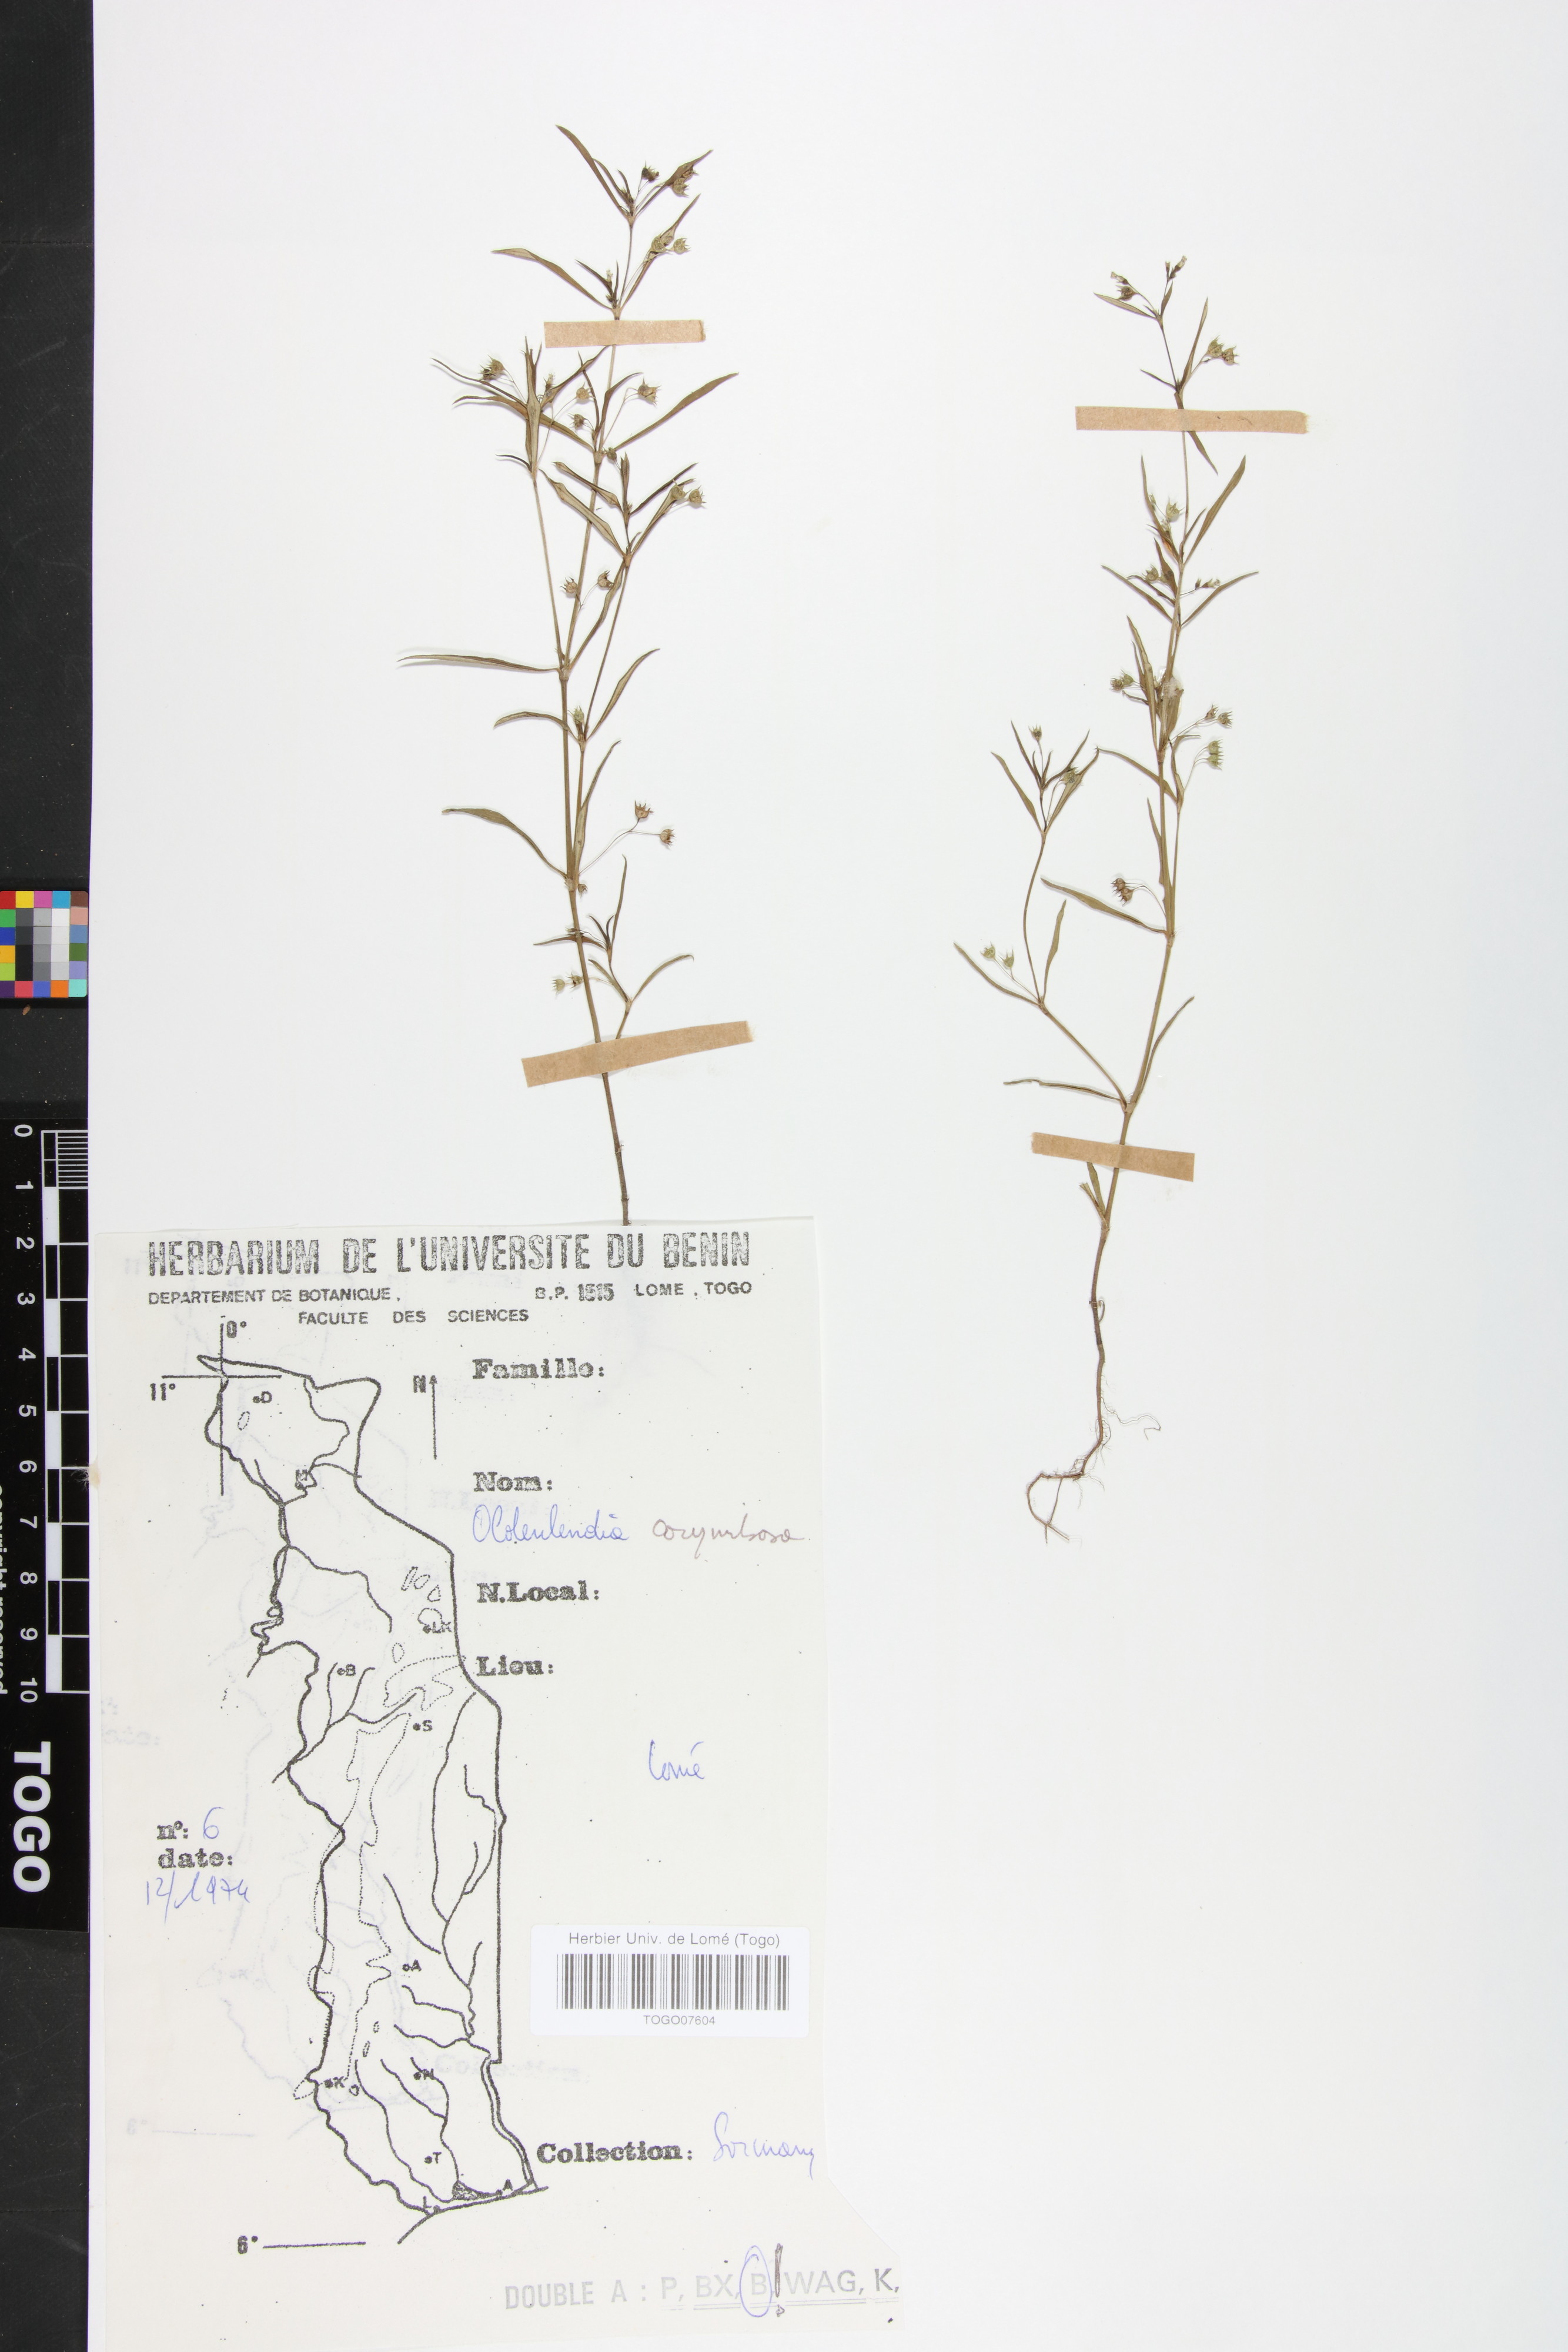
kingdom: Plantae
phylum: Tracheophyta
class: Magnoliopsida
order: Gentianales
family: Rubiaceae
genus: Oldenlandia
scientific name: Oldenlandia corymbosa
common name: Flat-top mille graines
